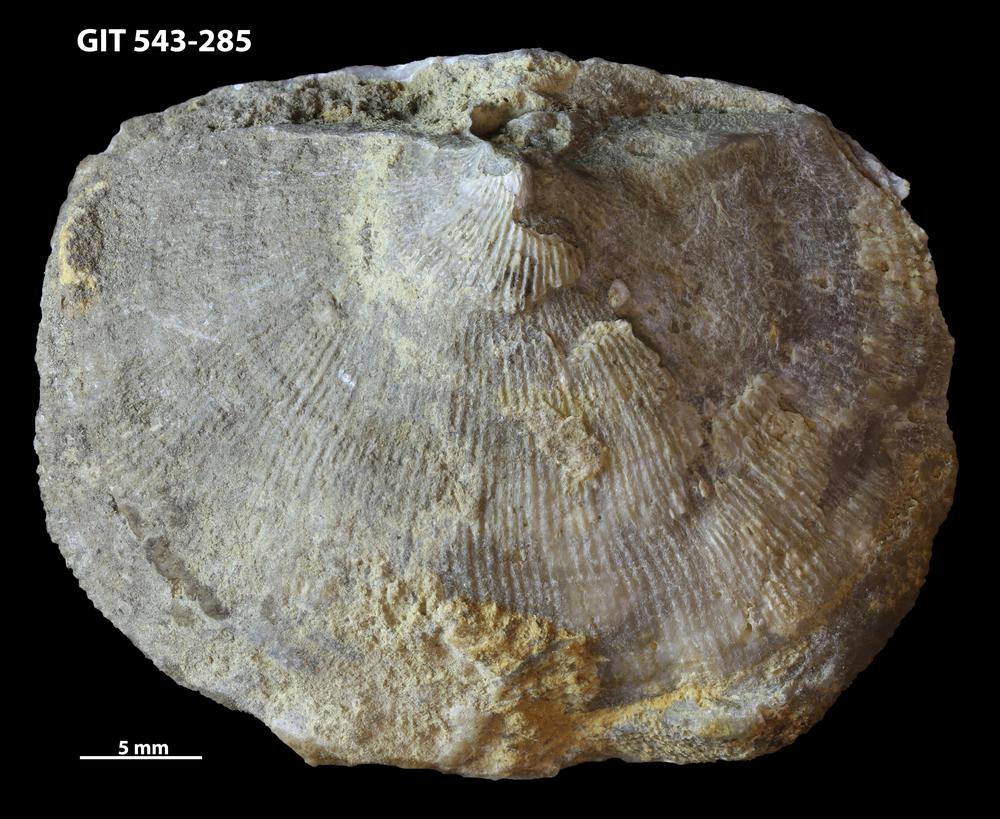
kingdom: Animalia
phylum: Brachiopoda
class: Rhynchonellata
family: Clitambonitidae
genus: Ilmarinia
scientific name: Ilmarinia dimorpha
